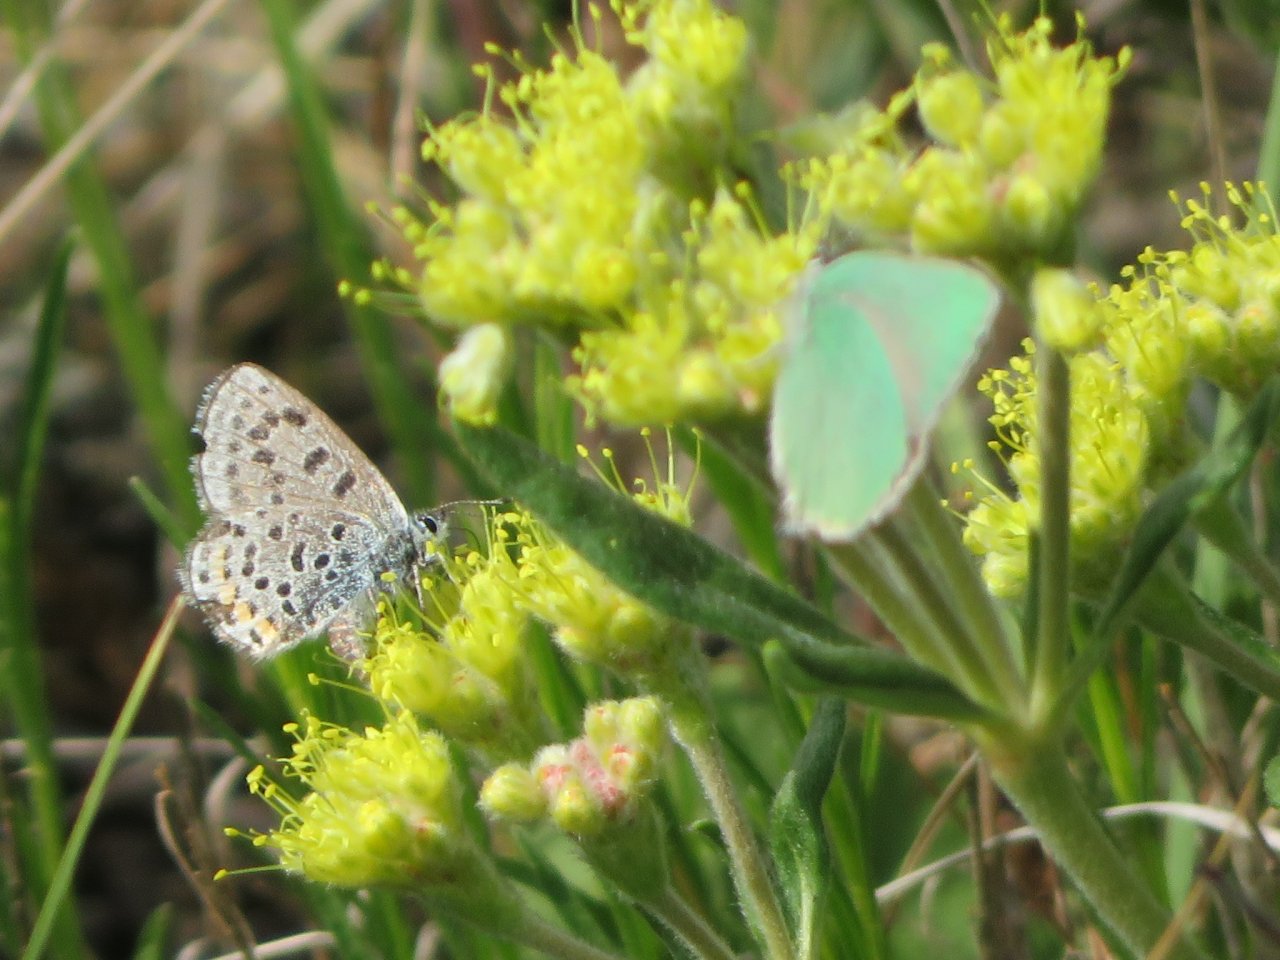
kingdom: Animalia
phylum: Arthropoda
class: Insecta
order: Lepidoptera
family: Lycaenidae
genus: Euphilotes
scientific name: Euphilotes enoptes
